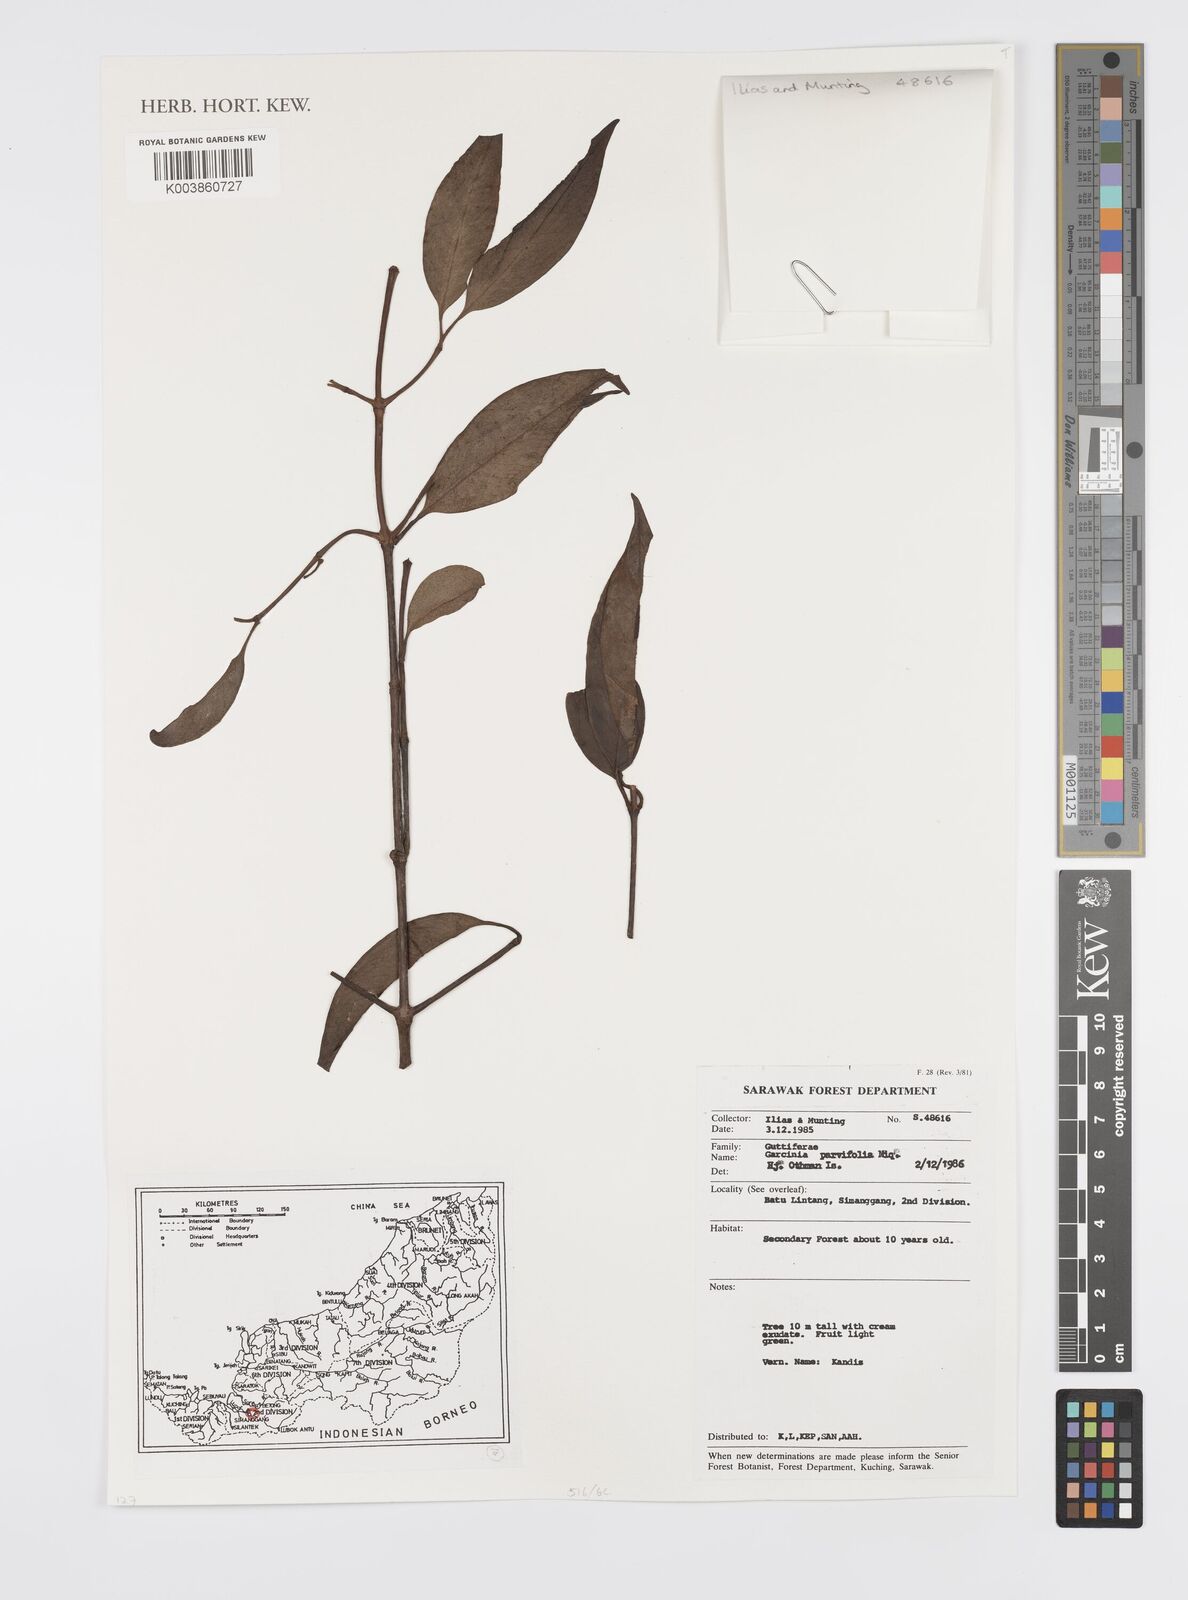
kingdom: Plantae
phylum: Tracheophyta
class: Magnoliopsida
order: Malpighiales
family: Clusiaceae
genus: Garcinia
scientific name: Garcinia parvifolia
